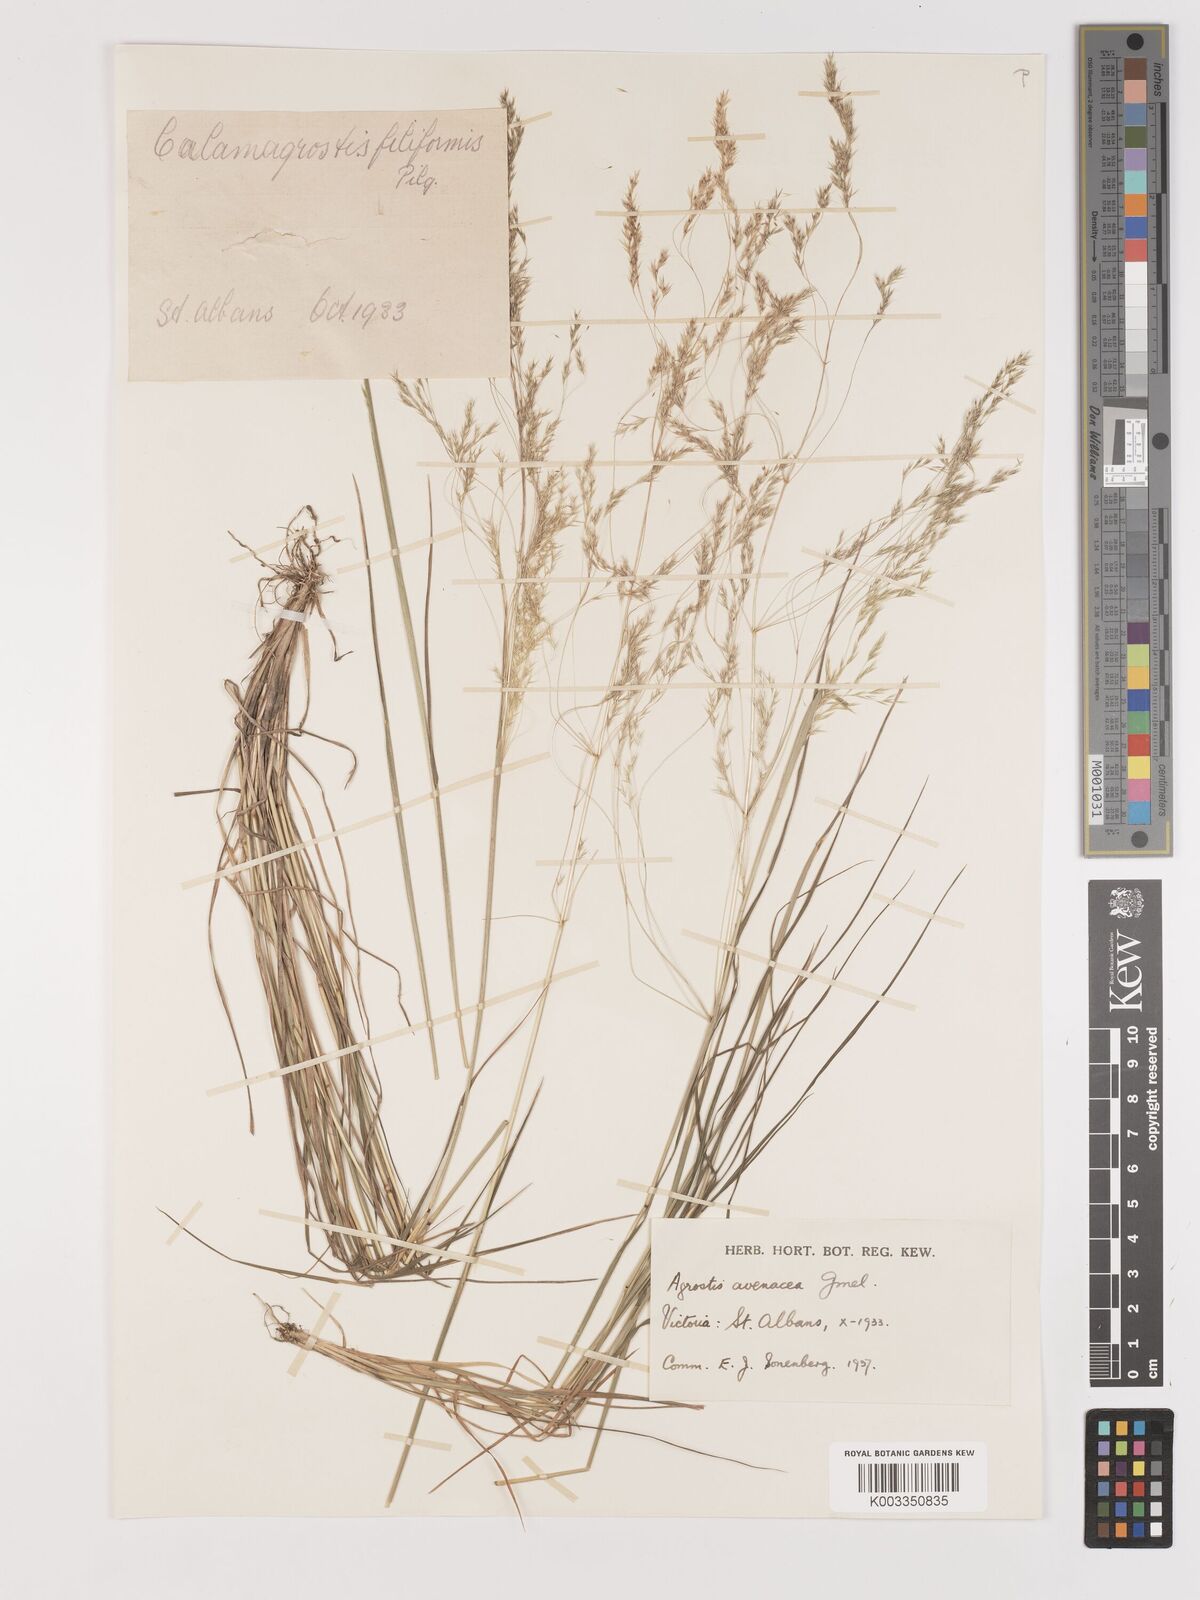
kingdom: Plantae
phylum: Tracheophyta
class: Liliopsida
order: Poales
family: Poaceae
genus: Lachnagrostis
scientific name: Lachnagrostis filiformis
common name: Bentgrass
